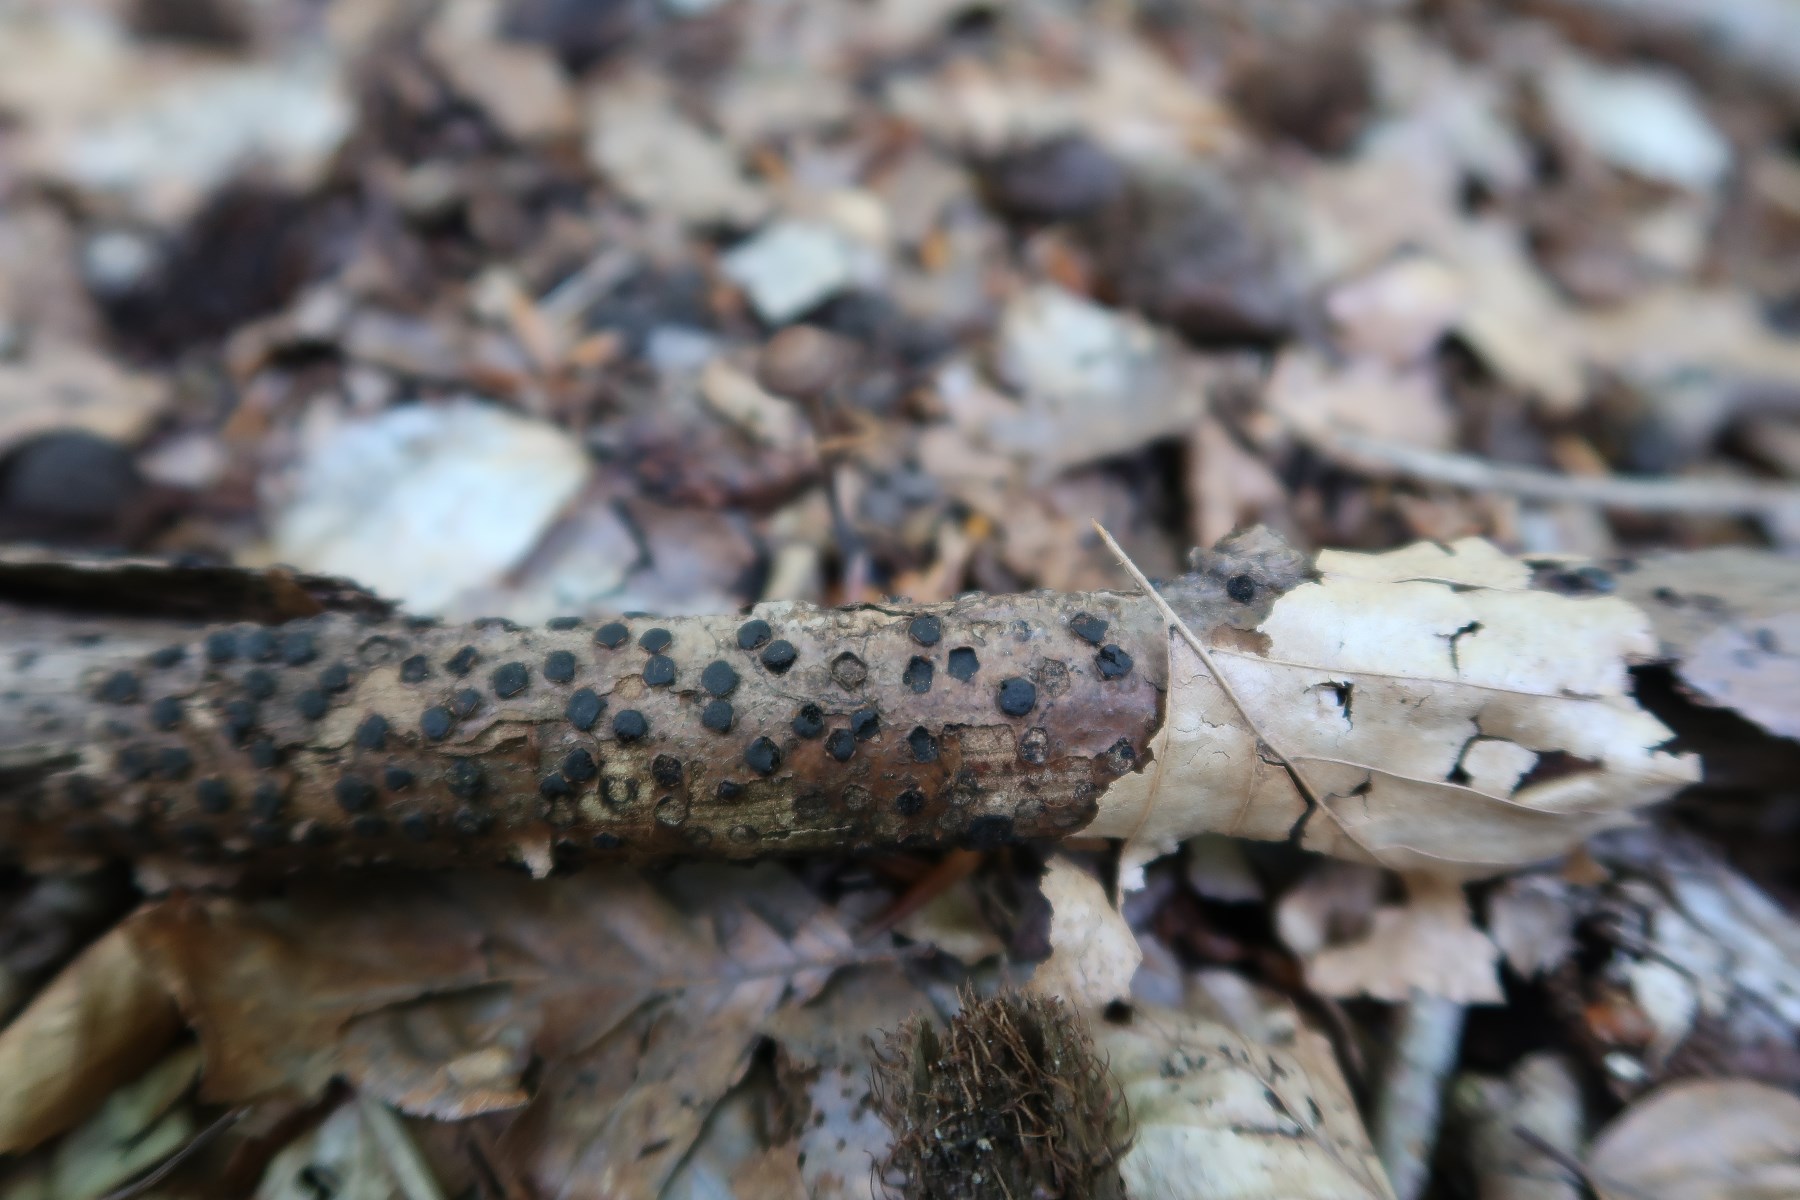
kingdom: Fungi
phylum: Ascomycota
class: Sordariomycetes
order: Xylariales
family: Diatrypaceae
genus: Diatrype
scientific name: Diatrype disciformis
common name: kant-kulskorpe
